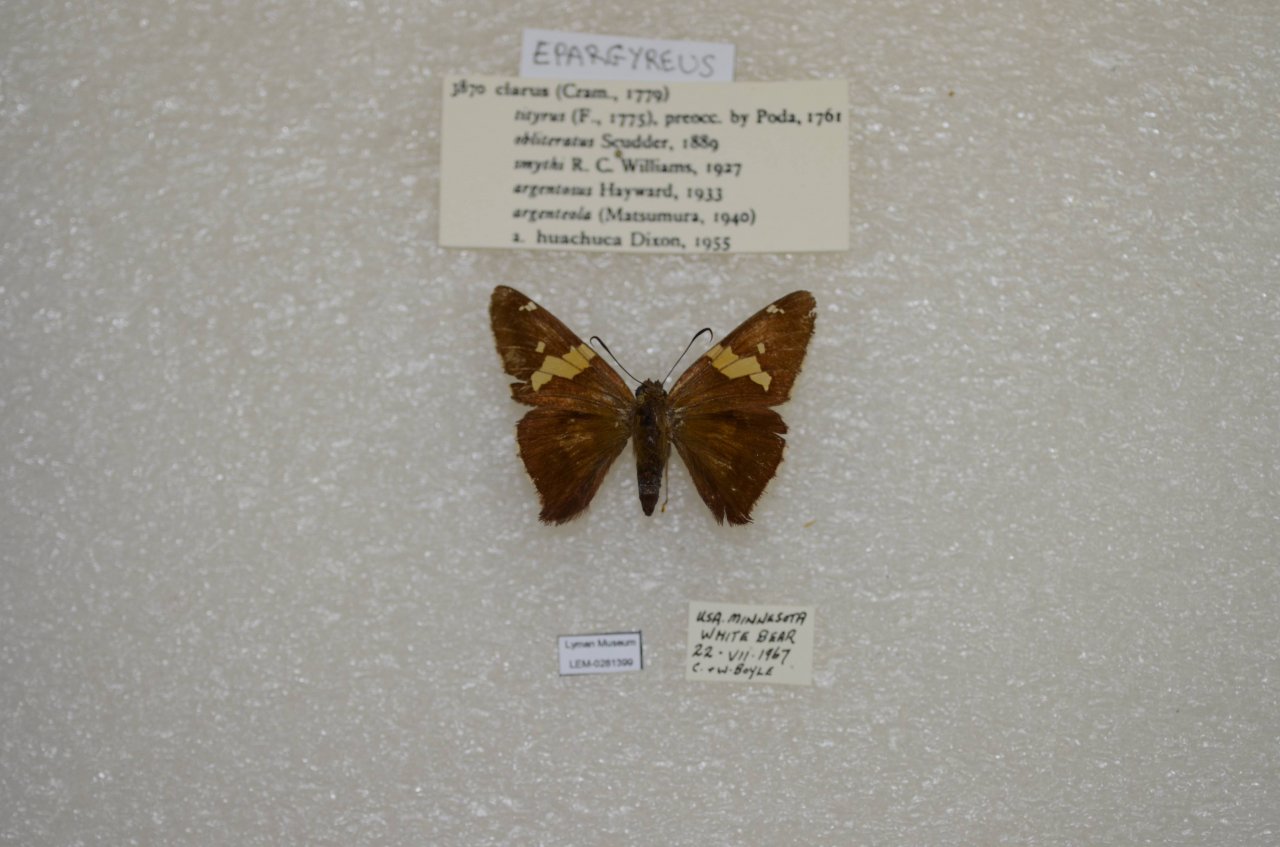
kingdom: Animalia
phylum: Arthropoda
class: Insecta
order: Lepidoptera
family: Hesperiidae
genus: Epargyreus
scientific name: Epargyreus clarus
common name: Silver-spotted Skipper
